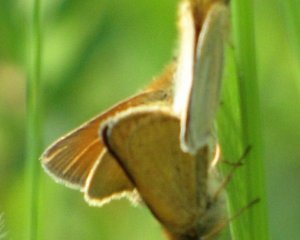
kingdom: Animalia
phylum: Arthropoda
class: Insecta
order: Lepidoptera
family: Hesperiidae
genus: Thymelicus
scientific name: Thymelicus lineola
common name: European Skipper
